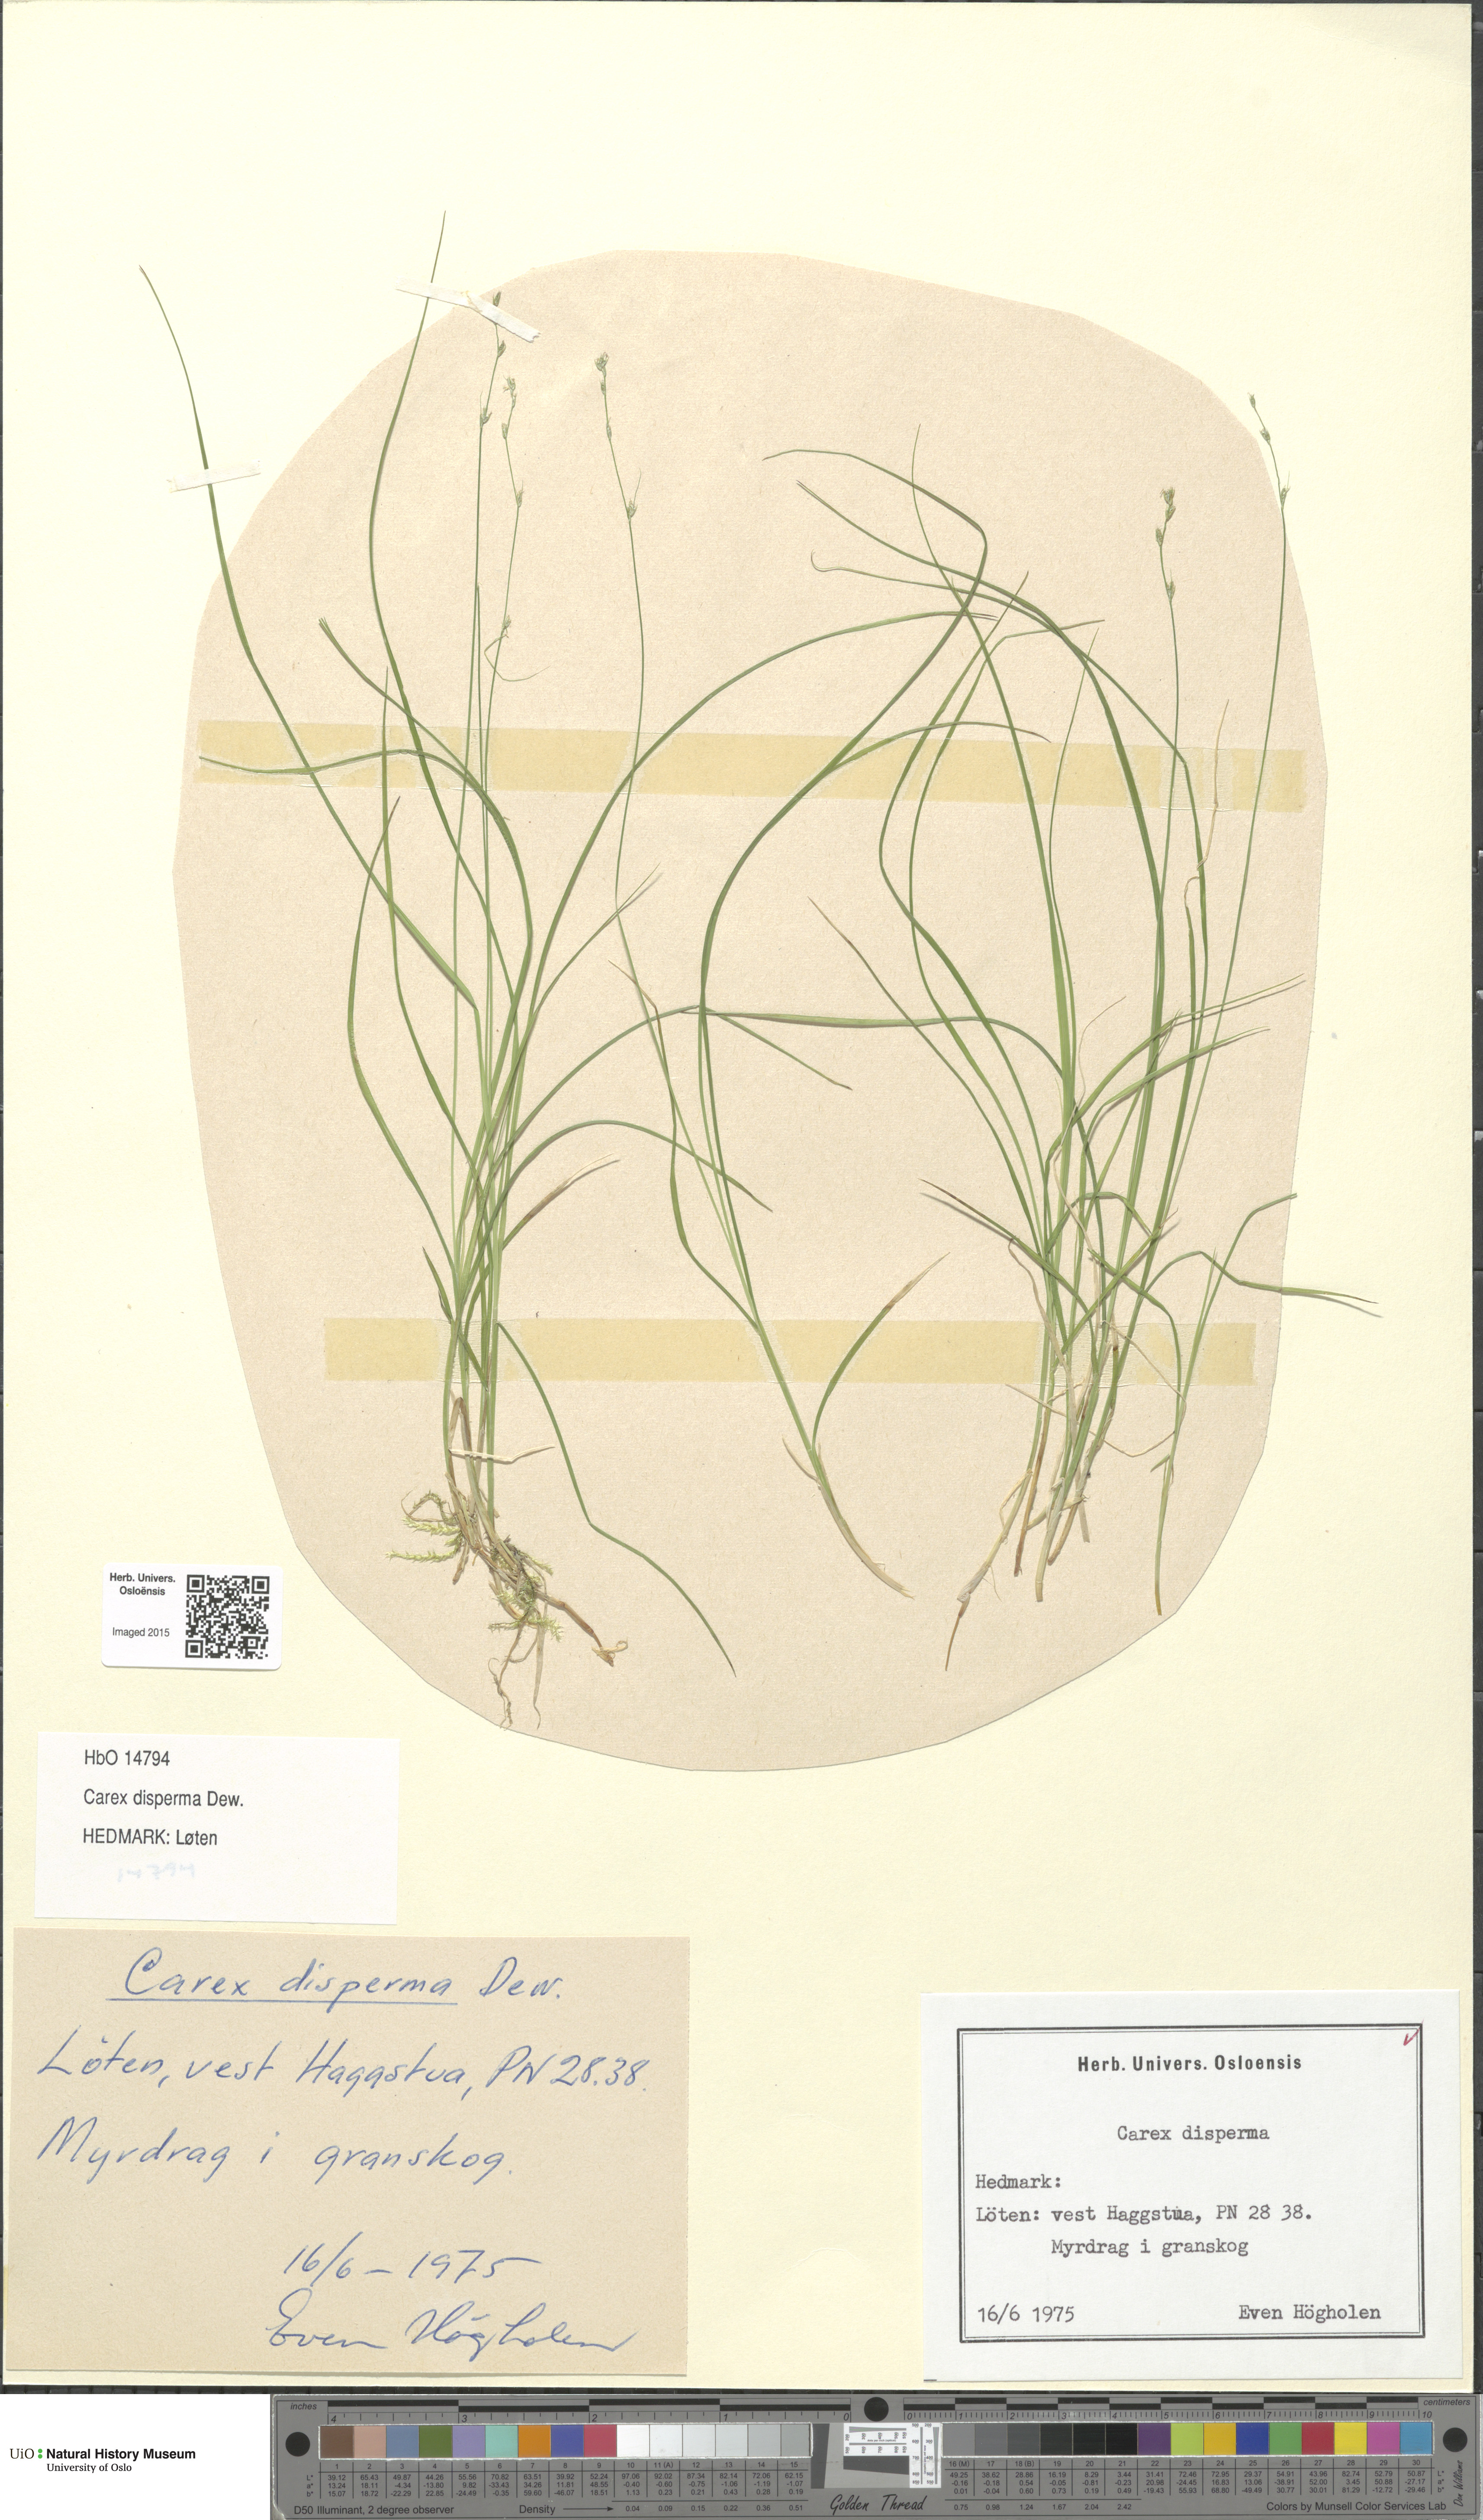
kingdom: Plantae
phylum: Tracheophyta
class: Liliopsida
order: Poales
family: Cyperaceae
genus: Carex
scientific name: Carex disperma
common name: Short-leaved sedge
